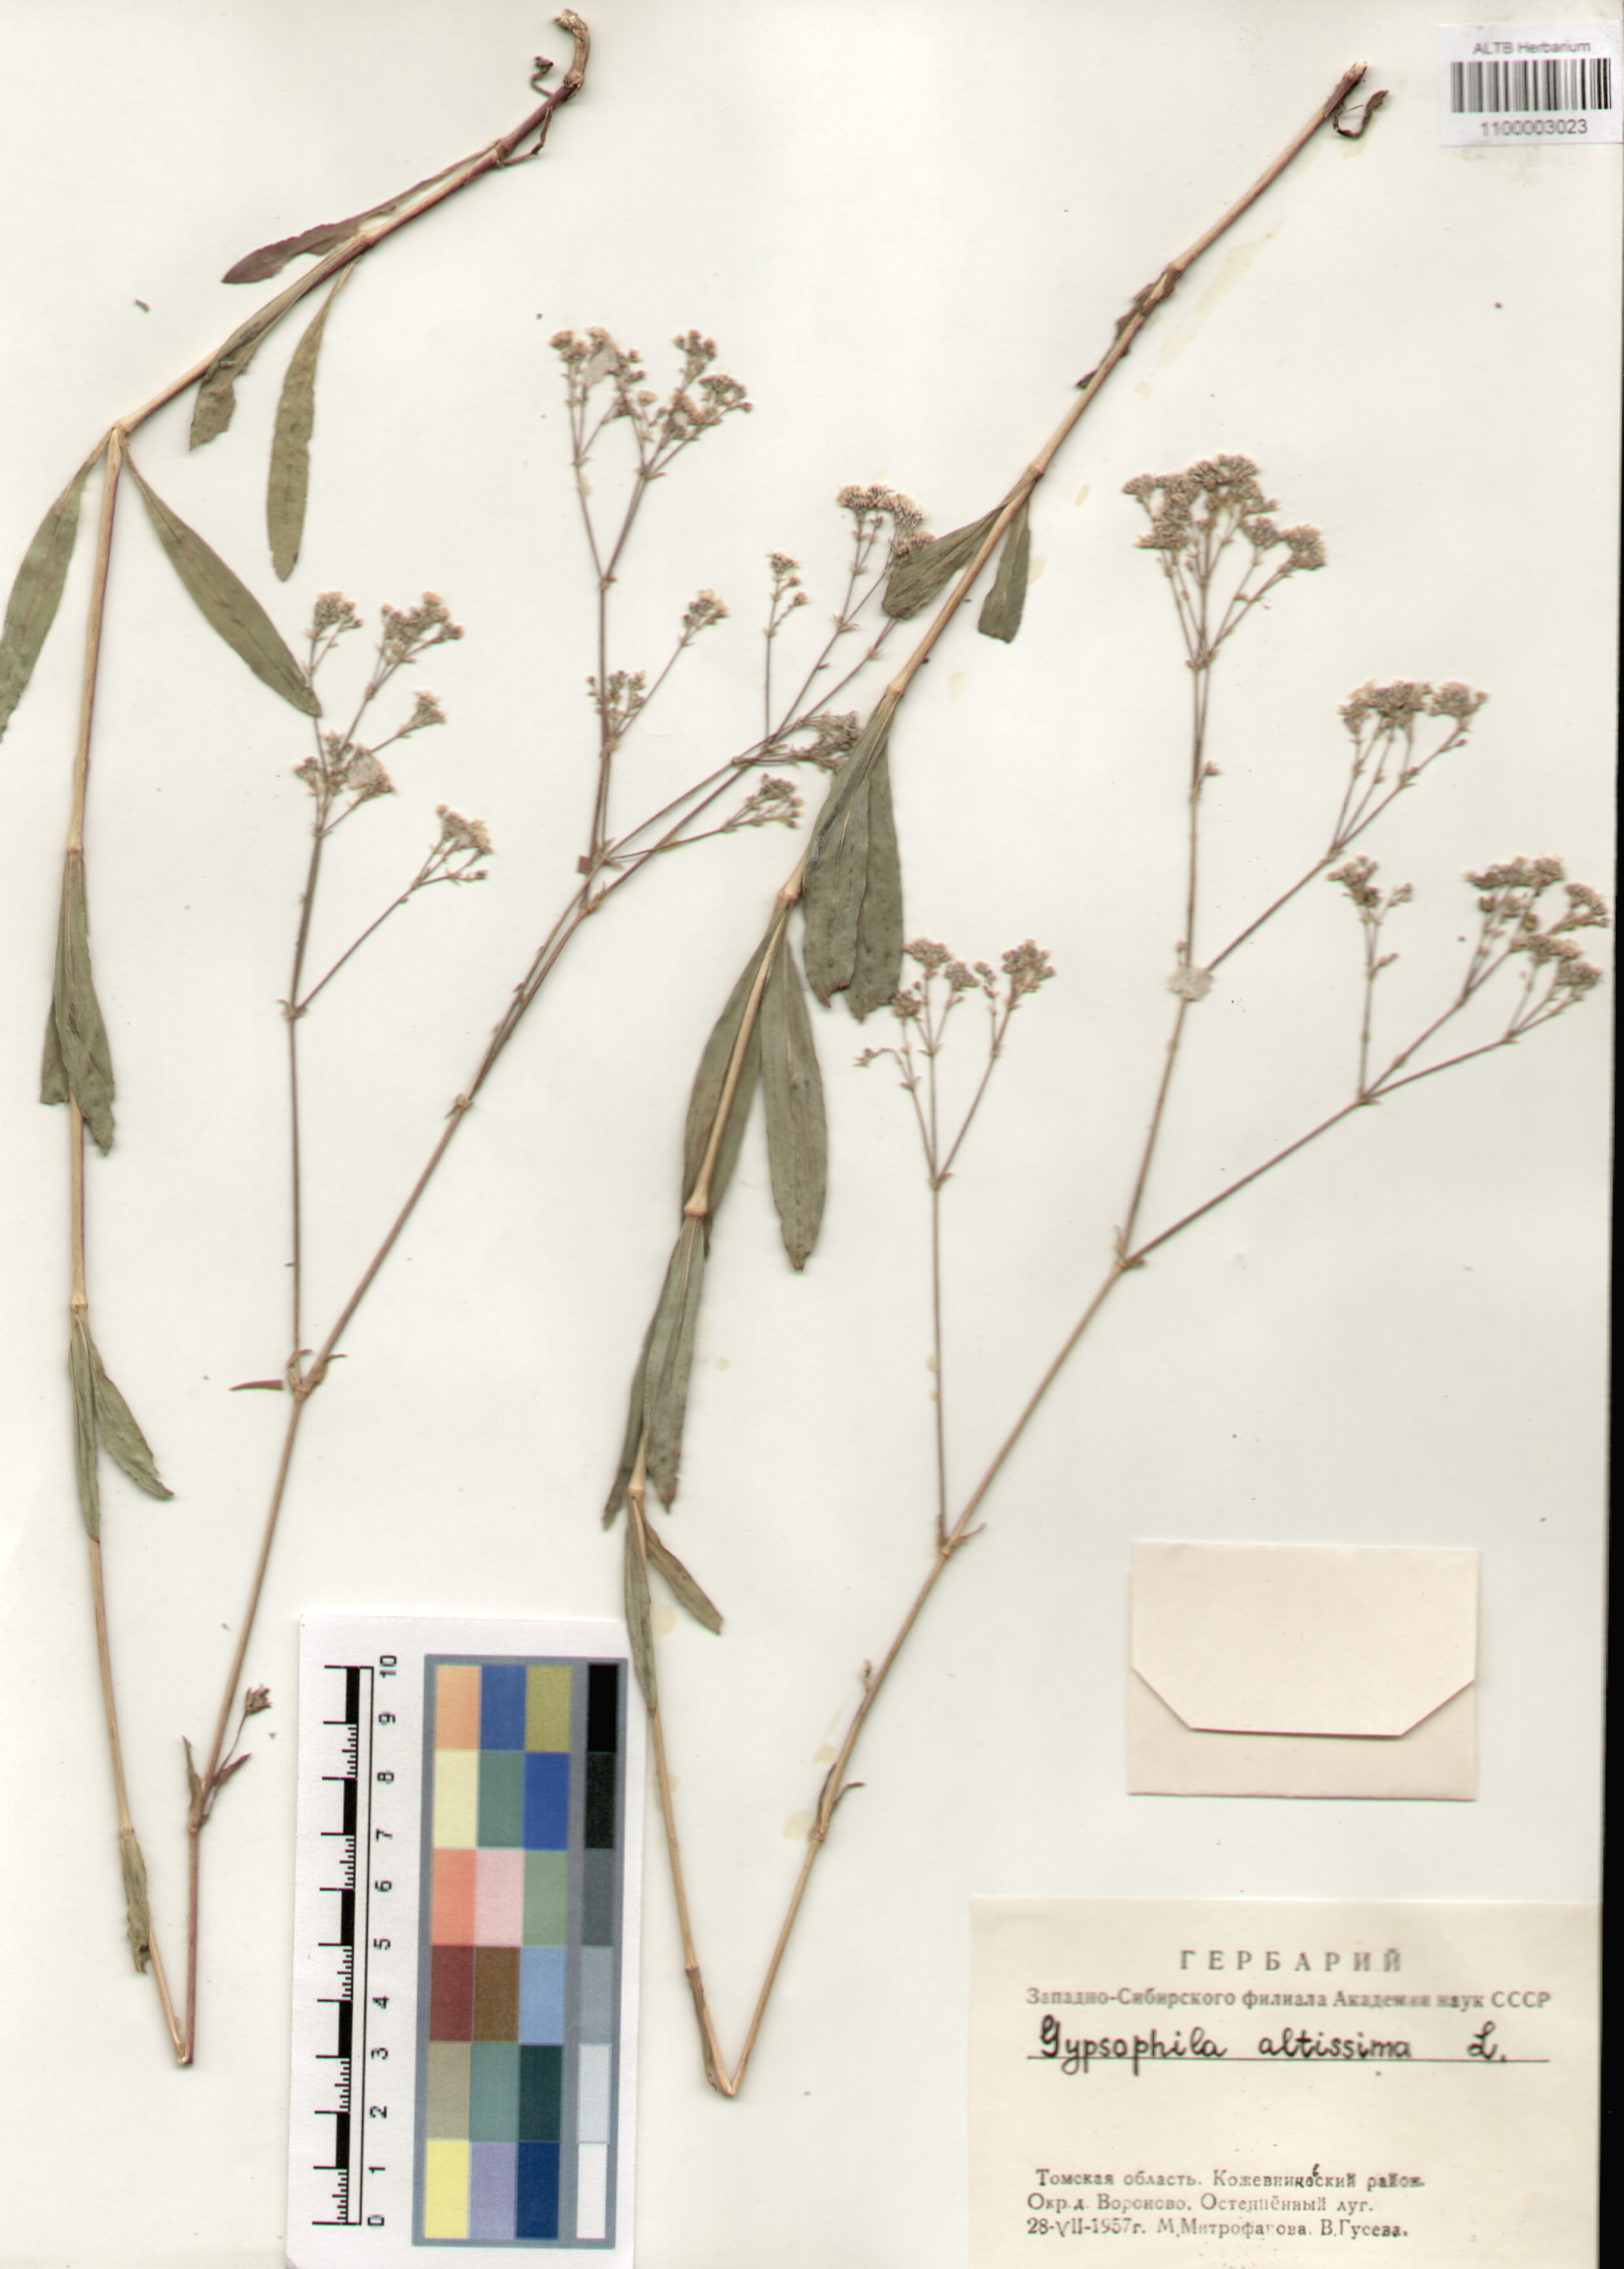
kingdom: Plantae
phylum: Tracheophyta
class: Magnoliopsida
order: Caryophyllales
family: Caryophyllaceae
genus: Gypsophila
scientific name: Gypsophila altissima
